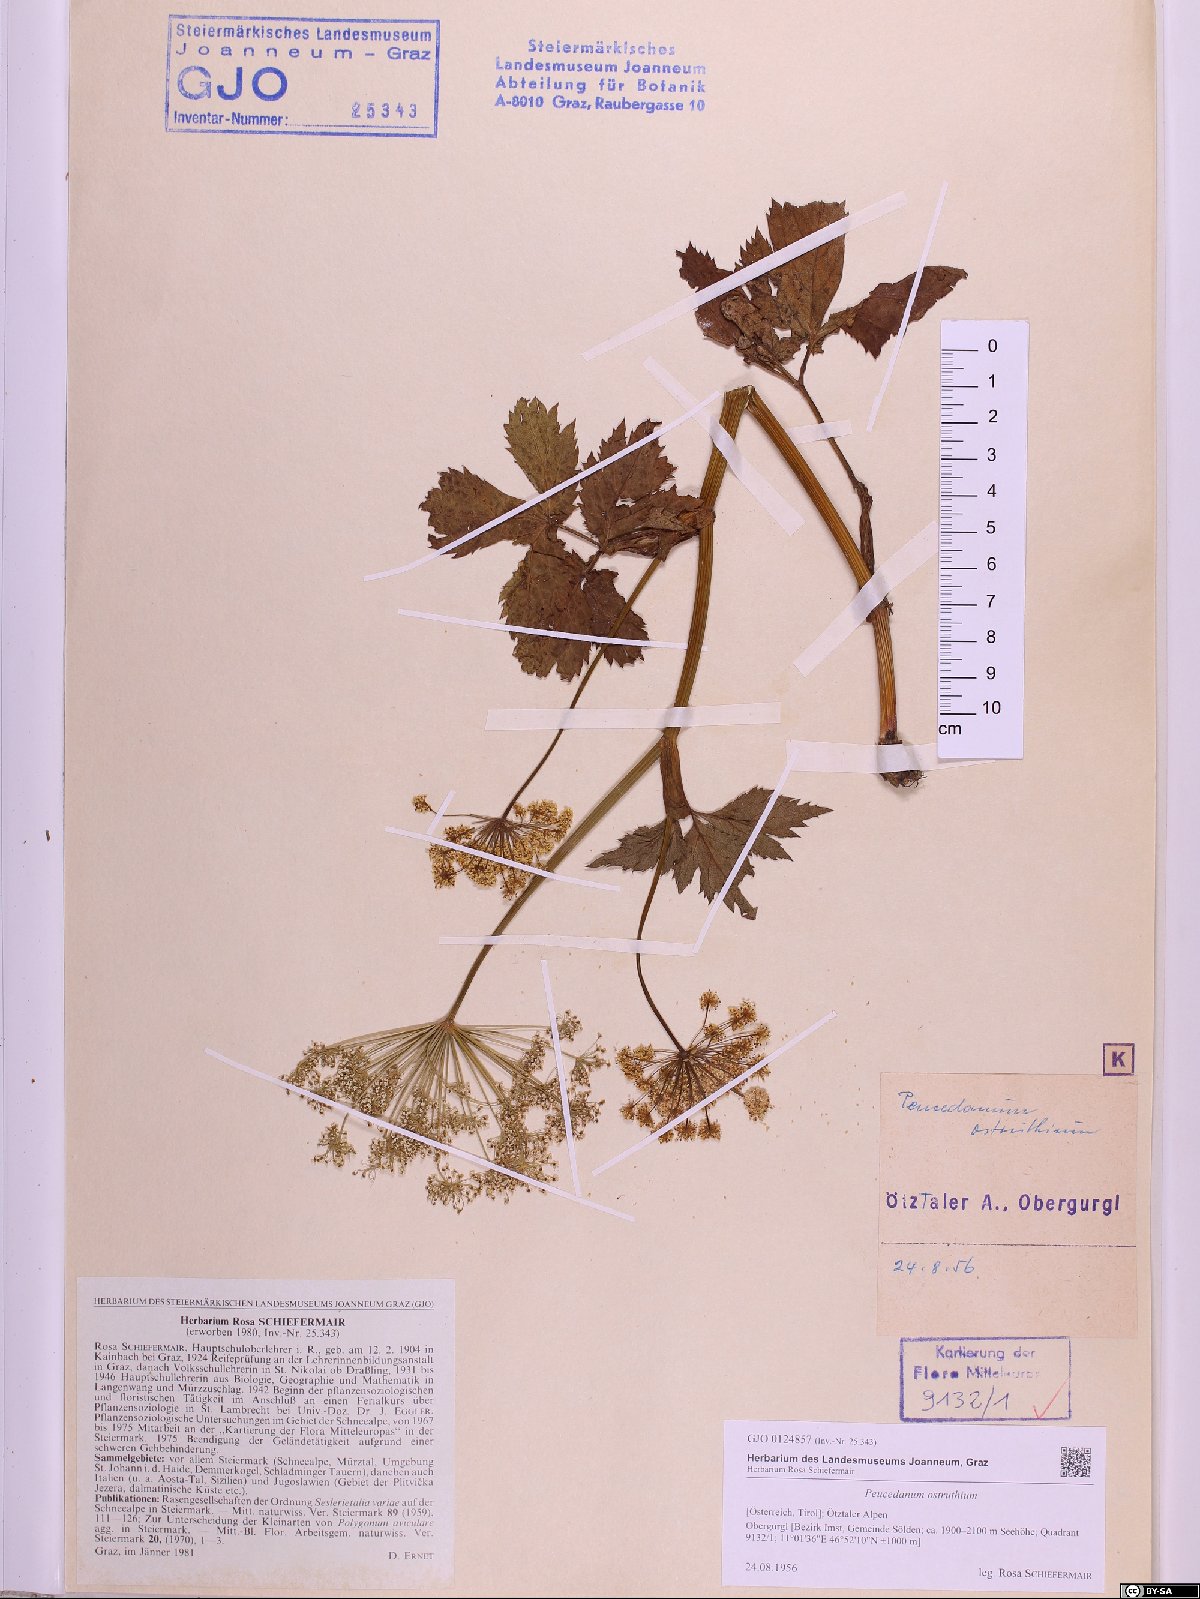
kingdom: Plantae
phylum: Tracheophyta
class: Magnoliopsida
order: Apiales
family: Apiaceae
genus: Imperatoria
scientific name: Imperatoria ostruthium
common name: Masterwort
